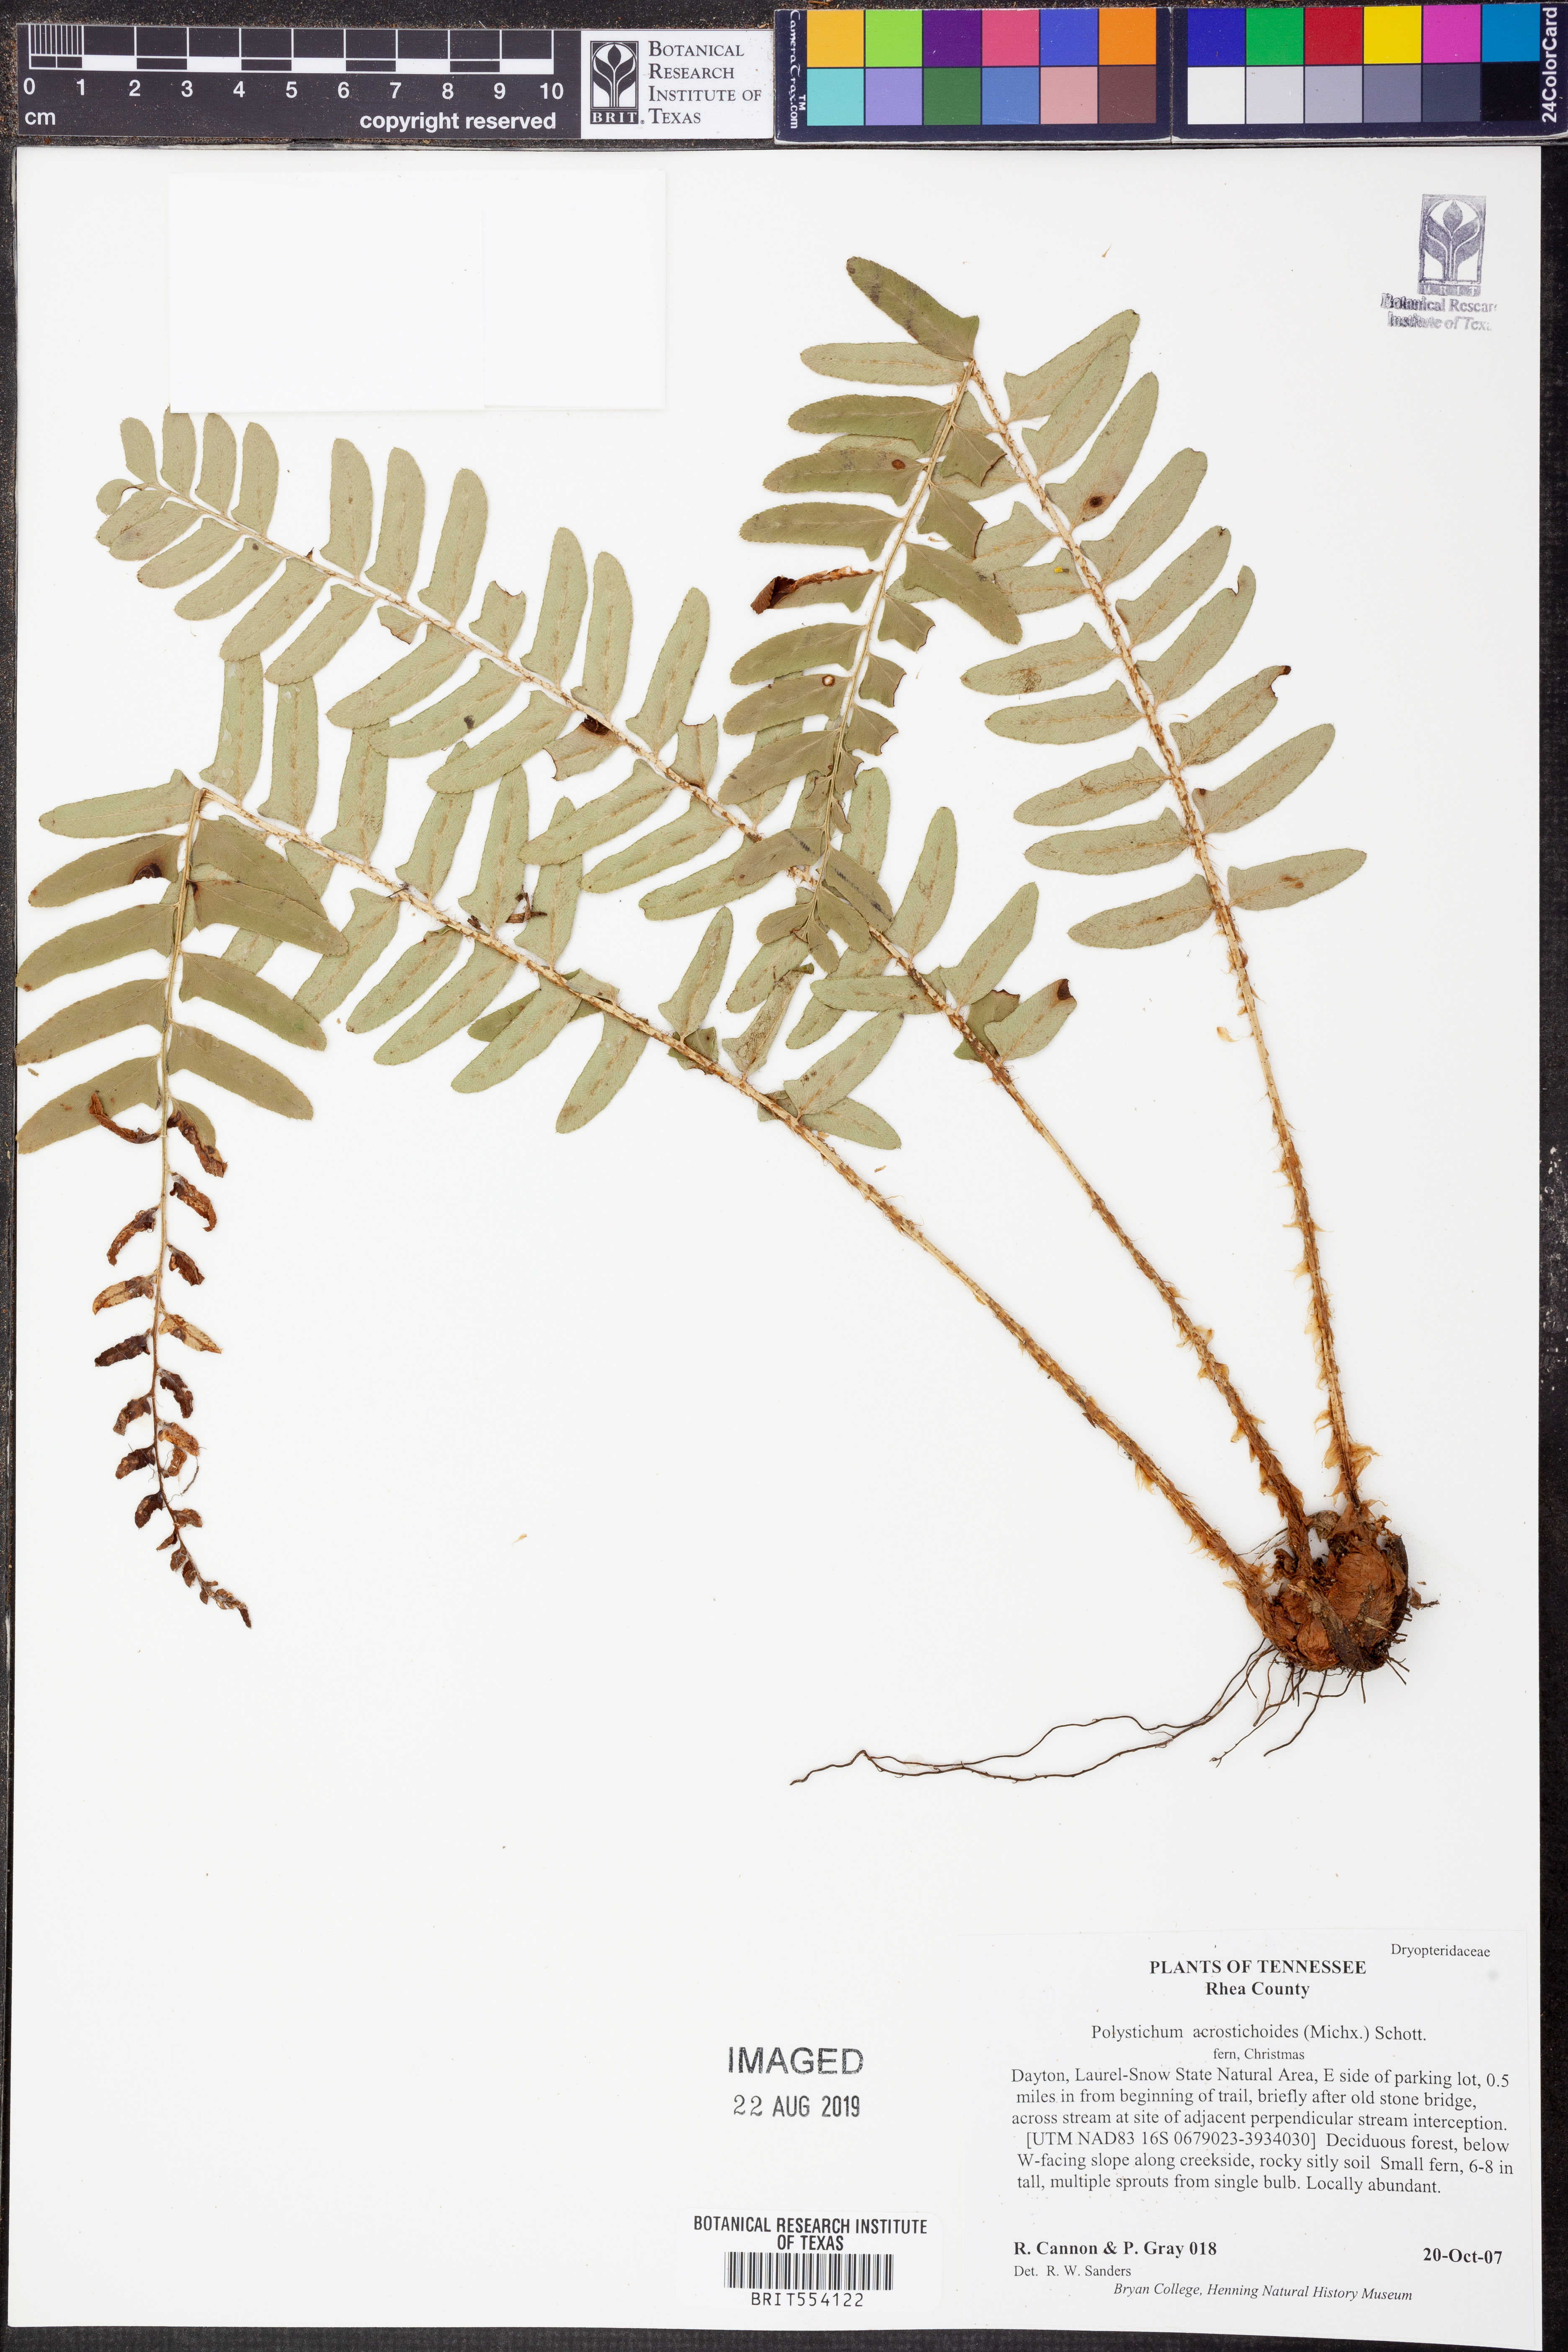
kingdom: Plantae
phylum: Tracheophyta
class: Polypodiopsida
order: Polypodiales
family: Dryopteridaceae
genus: Polystichum
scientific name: Polystichum acrostichoides
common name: Christmas fern
